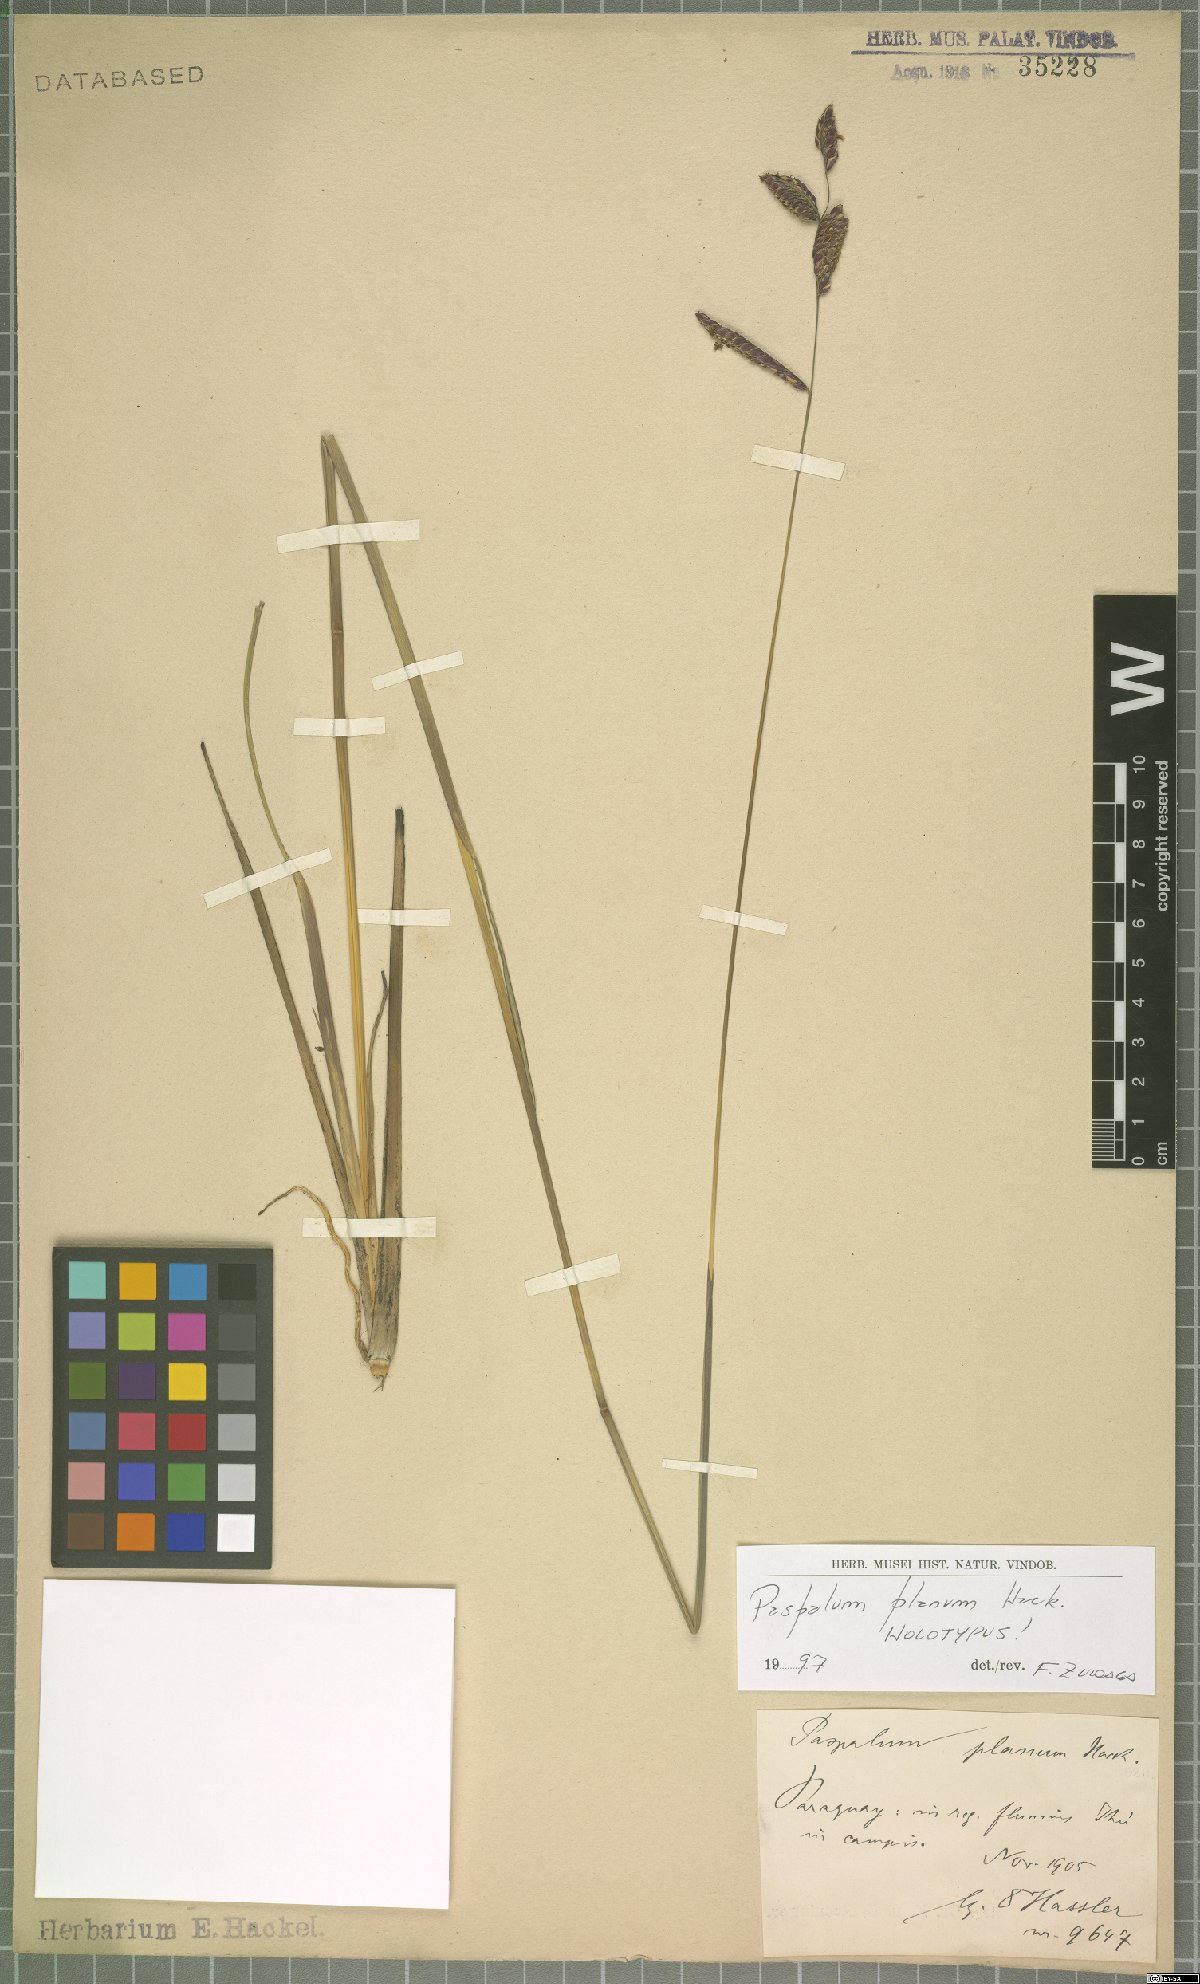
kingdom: Plantae
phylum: Tracheophyta
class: Liliopsida
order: Poales
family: Poaceae
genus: Paspalum
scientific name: Paspalum planum
